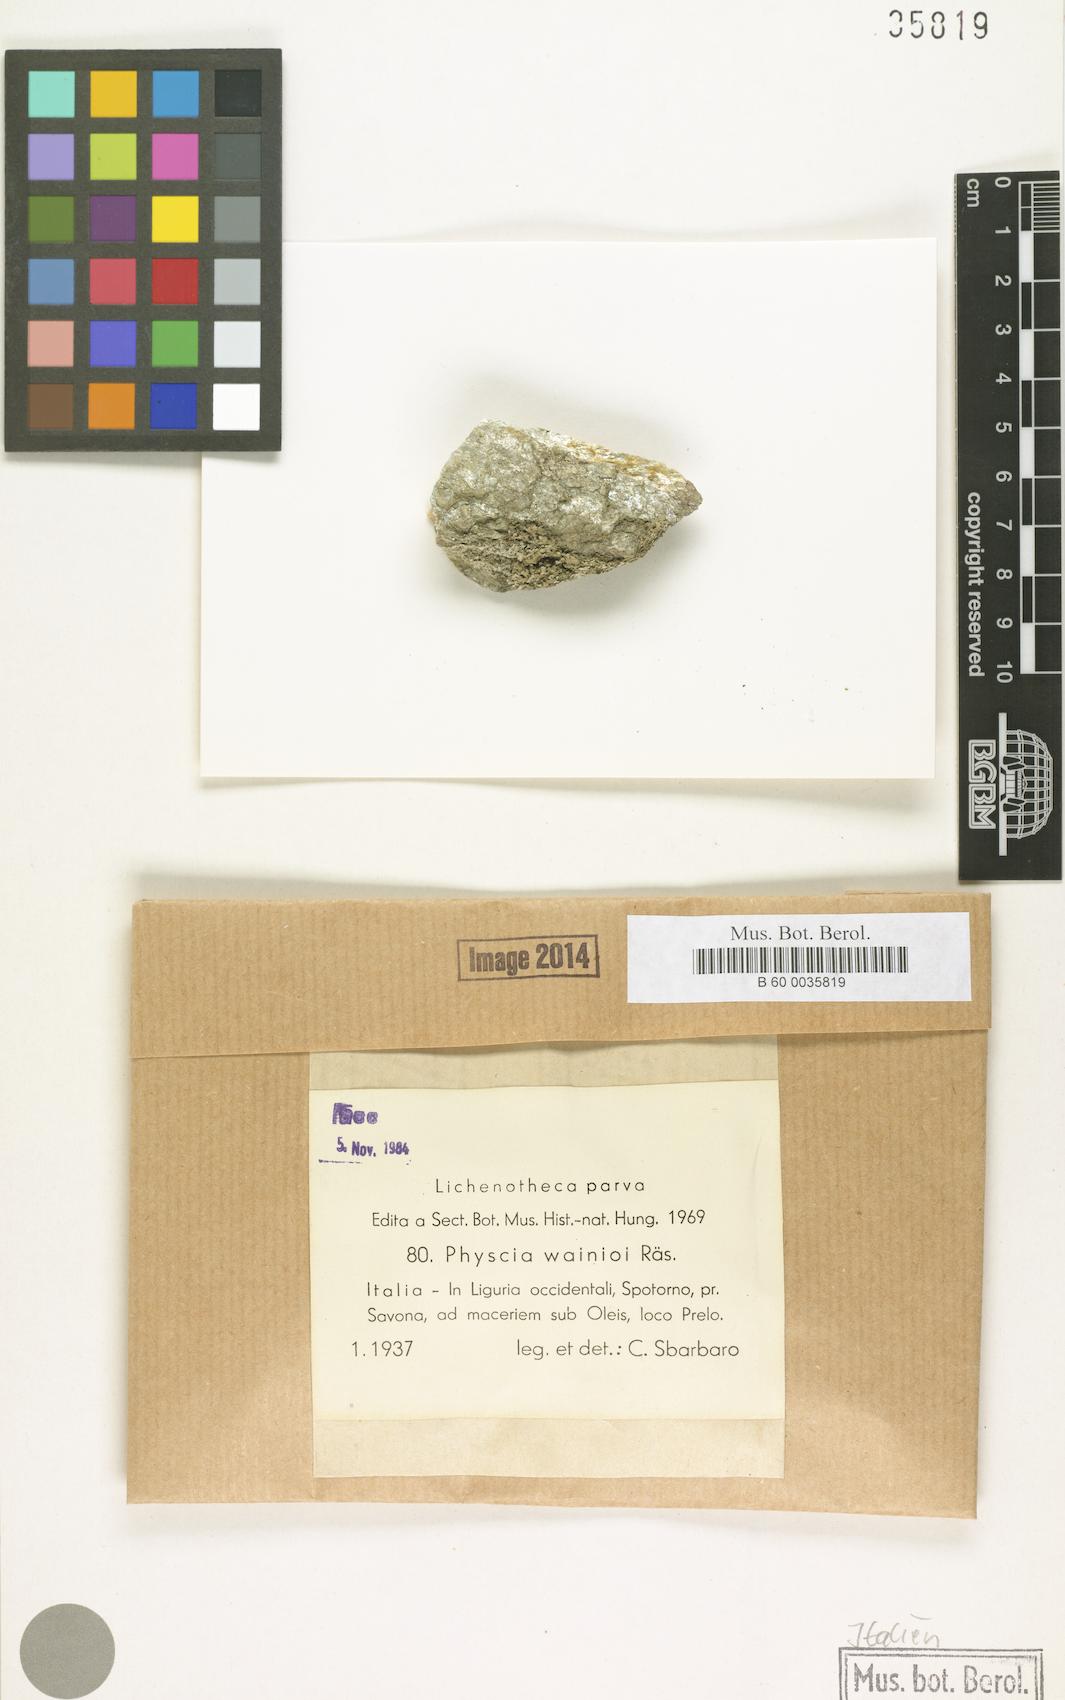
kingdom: Fungi
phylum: Ascomycota
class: Lecanoromycetes
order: Caliciales
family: Physciaceae
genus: Physcia
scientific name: Physcia caesia
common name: Blue-gray rosette lichen
